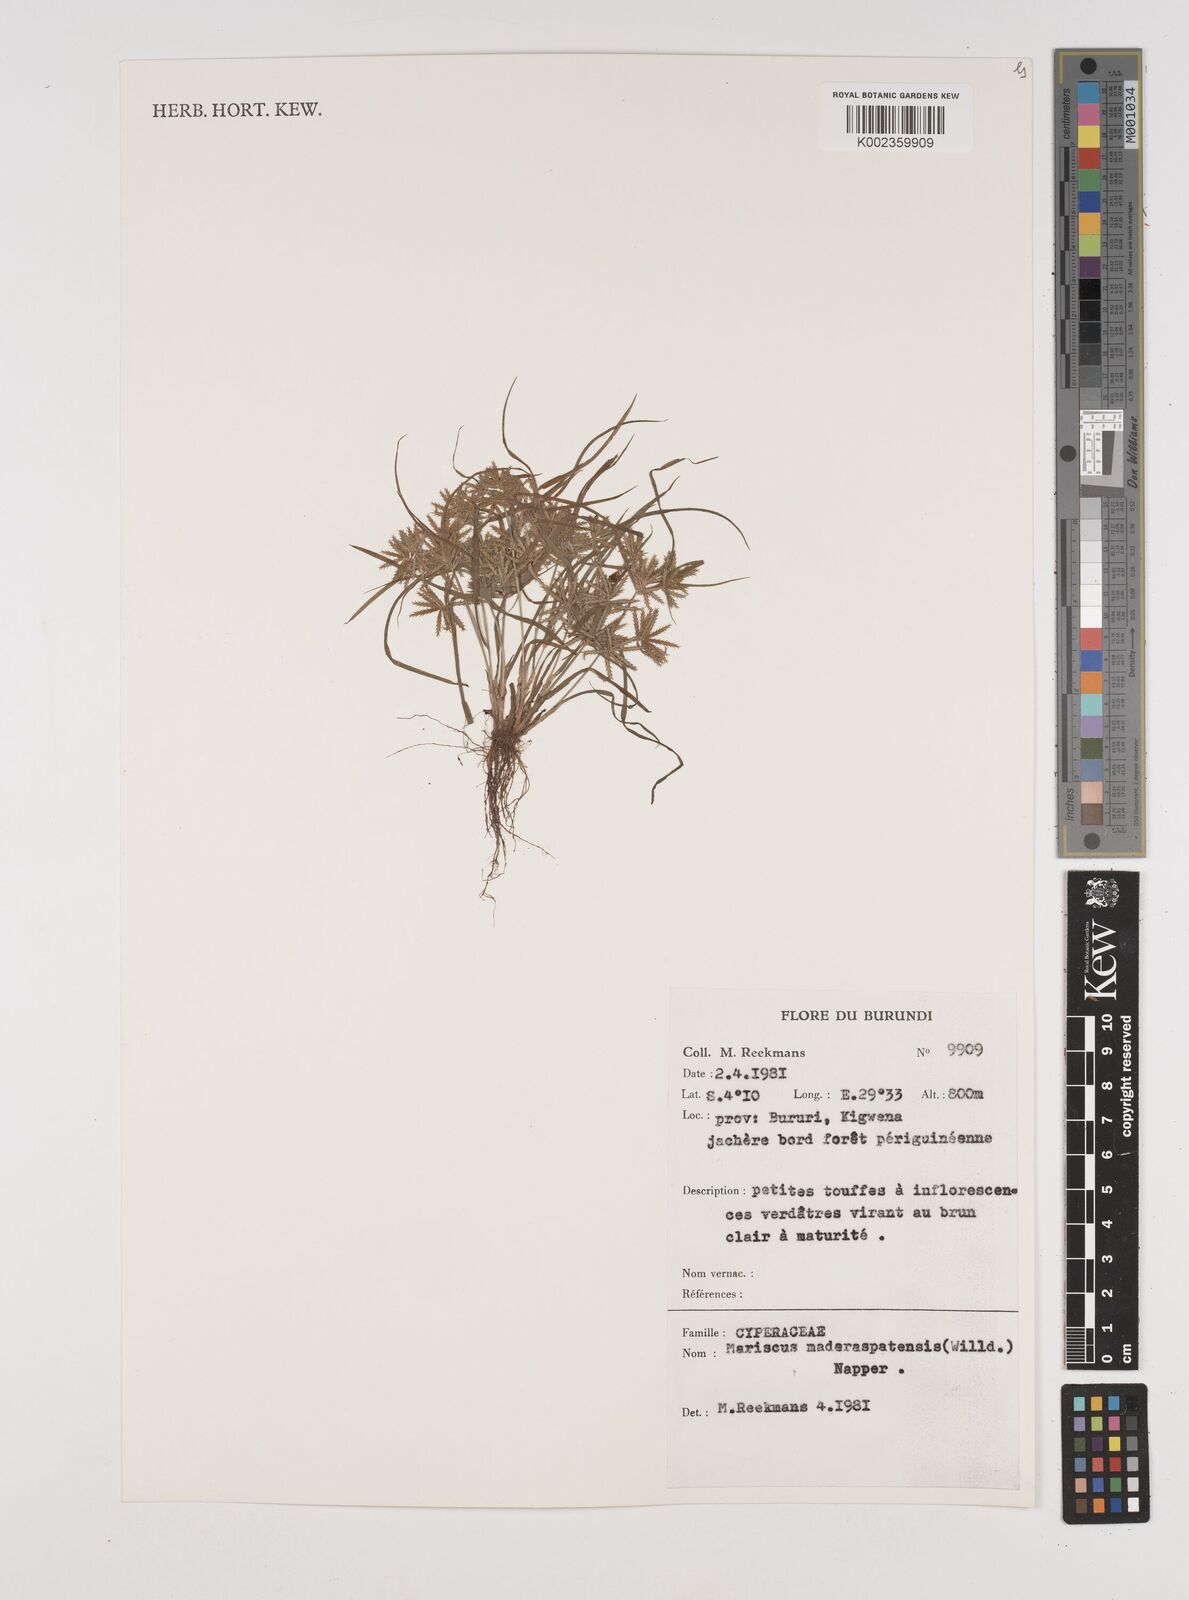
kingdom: Plantae
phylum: Tracheophyta
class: Liliopsida
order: Poales
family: Cyperaceae
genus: Cyperus
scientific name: Cyperus maderaspatanus
